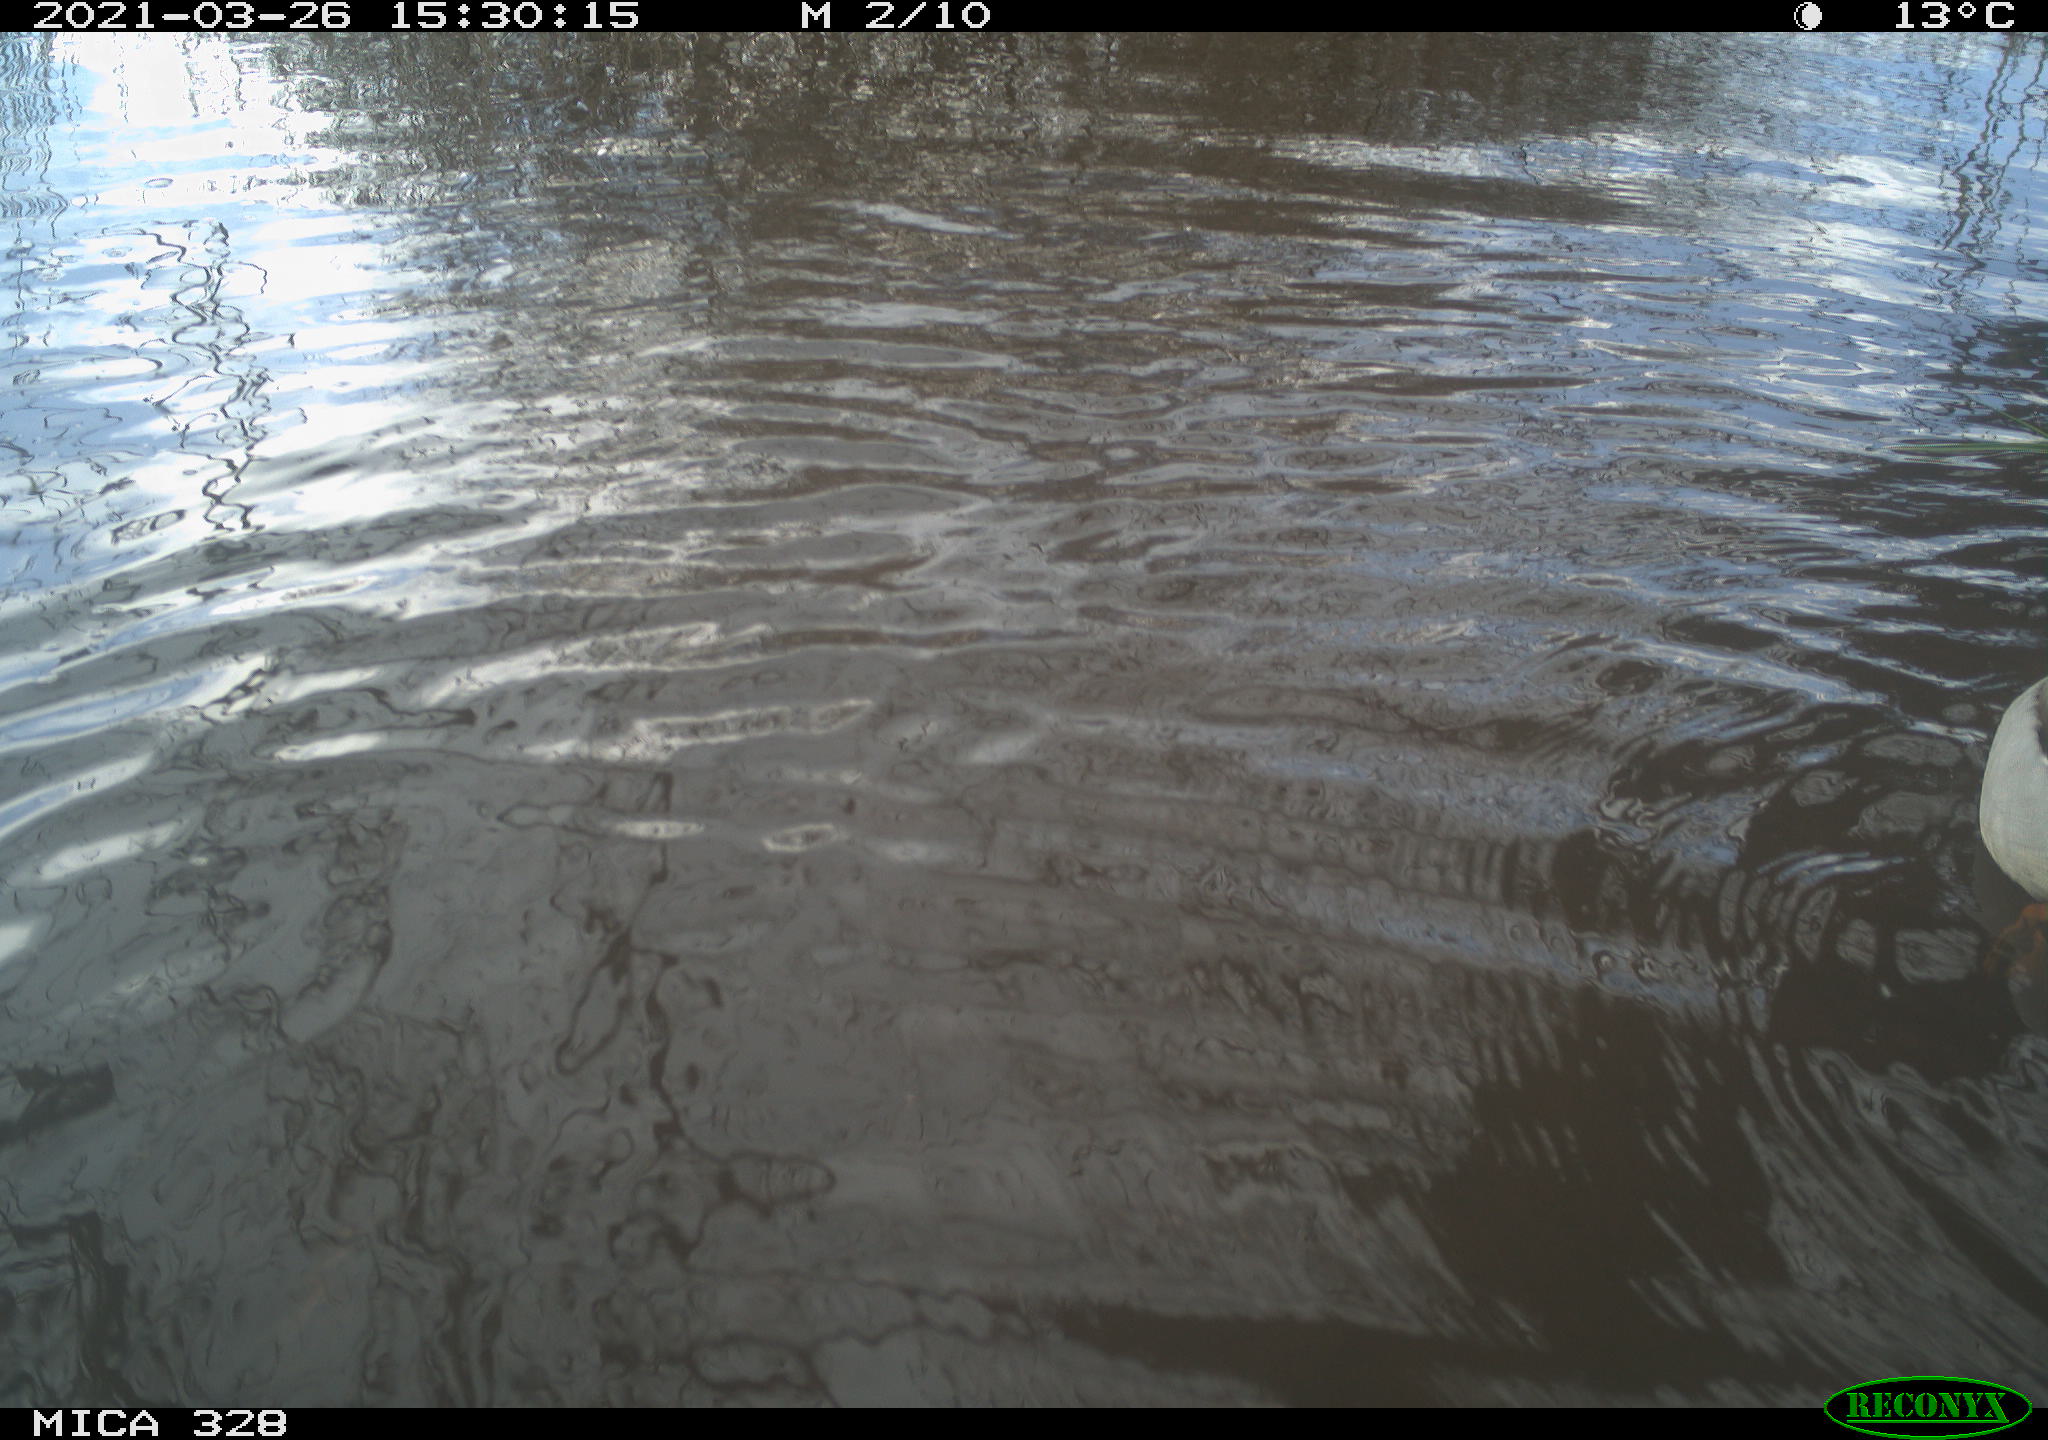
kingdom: Animalia
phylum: Chordata
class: Aves
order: Anseriformes
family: Anatidae
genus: Anas
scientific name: Anas platyrhynchos
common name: Mallard
